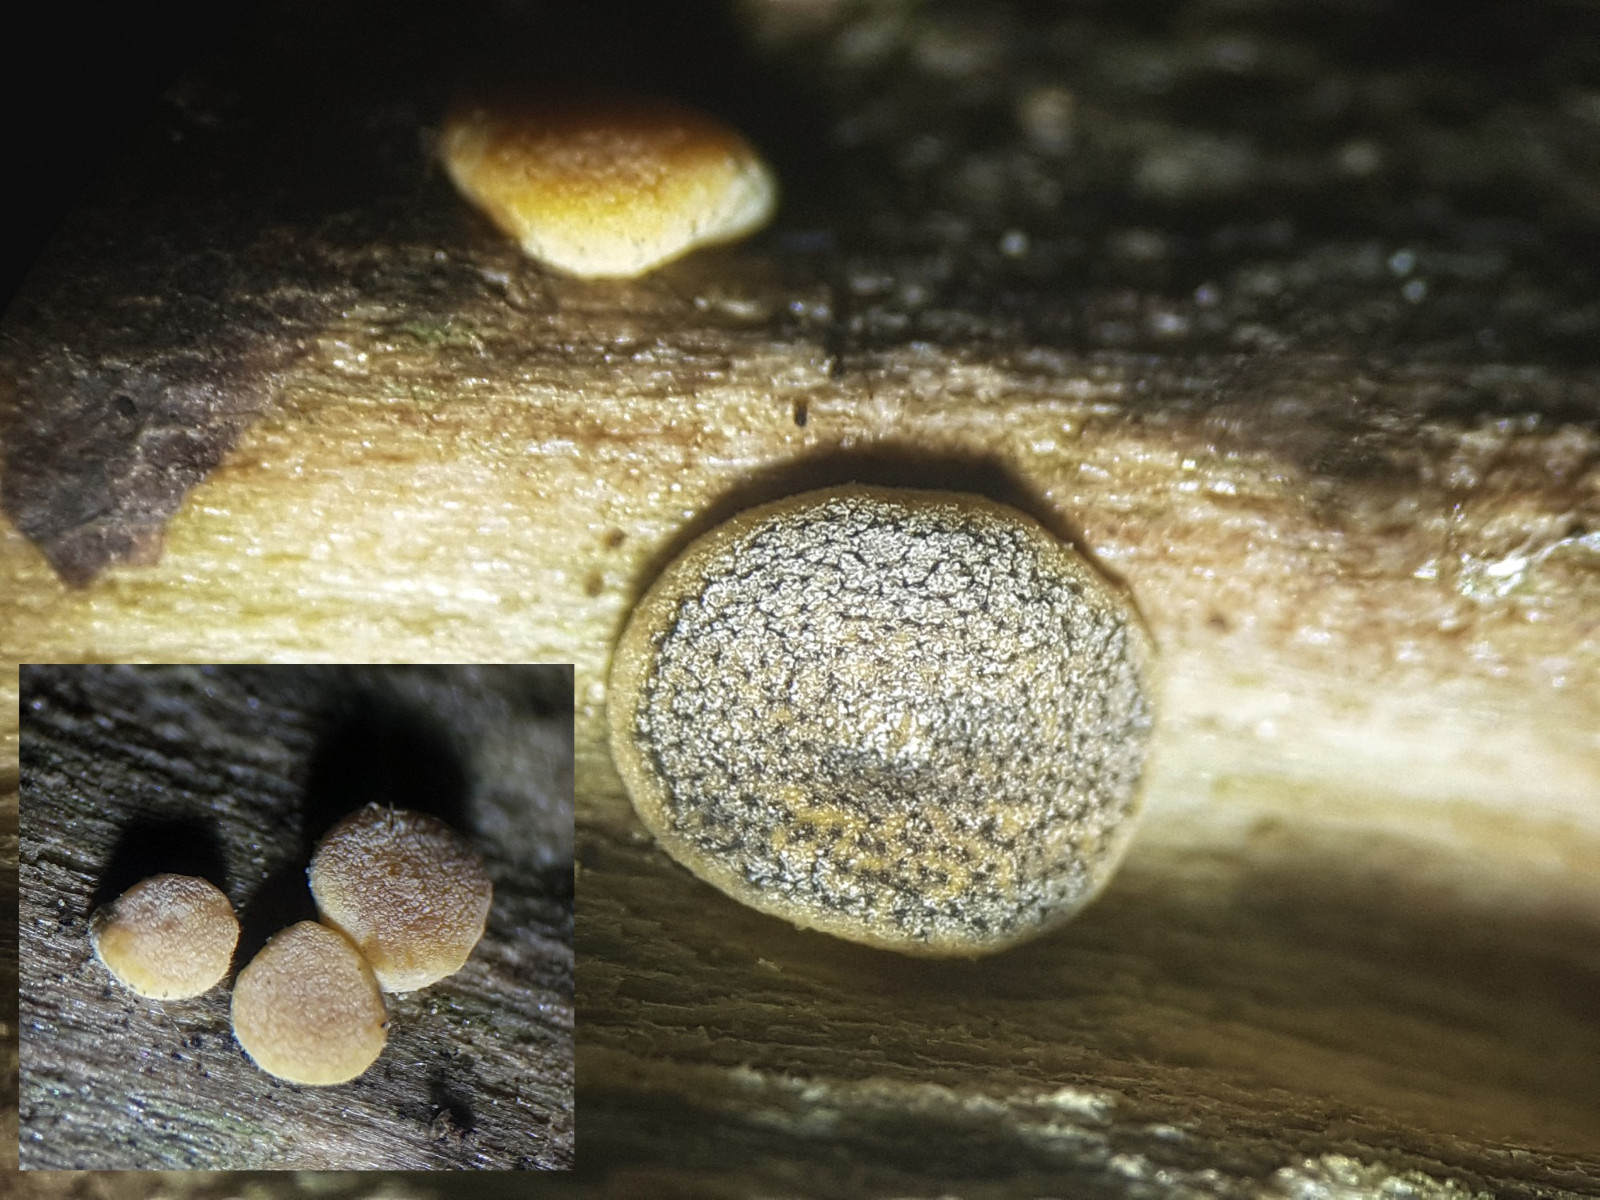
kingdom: Fungi
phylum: Ascomycota
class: Sordariomycetes
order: Hypocreales
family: Hypocreaceae
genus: Trichoderma
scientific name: Trichoderma aureoviride
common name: æggegul kødkerne
